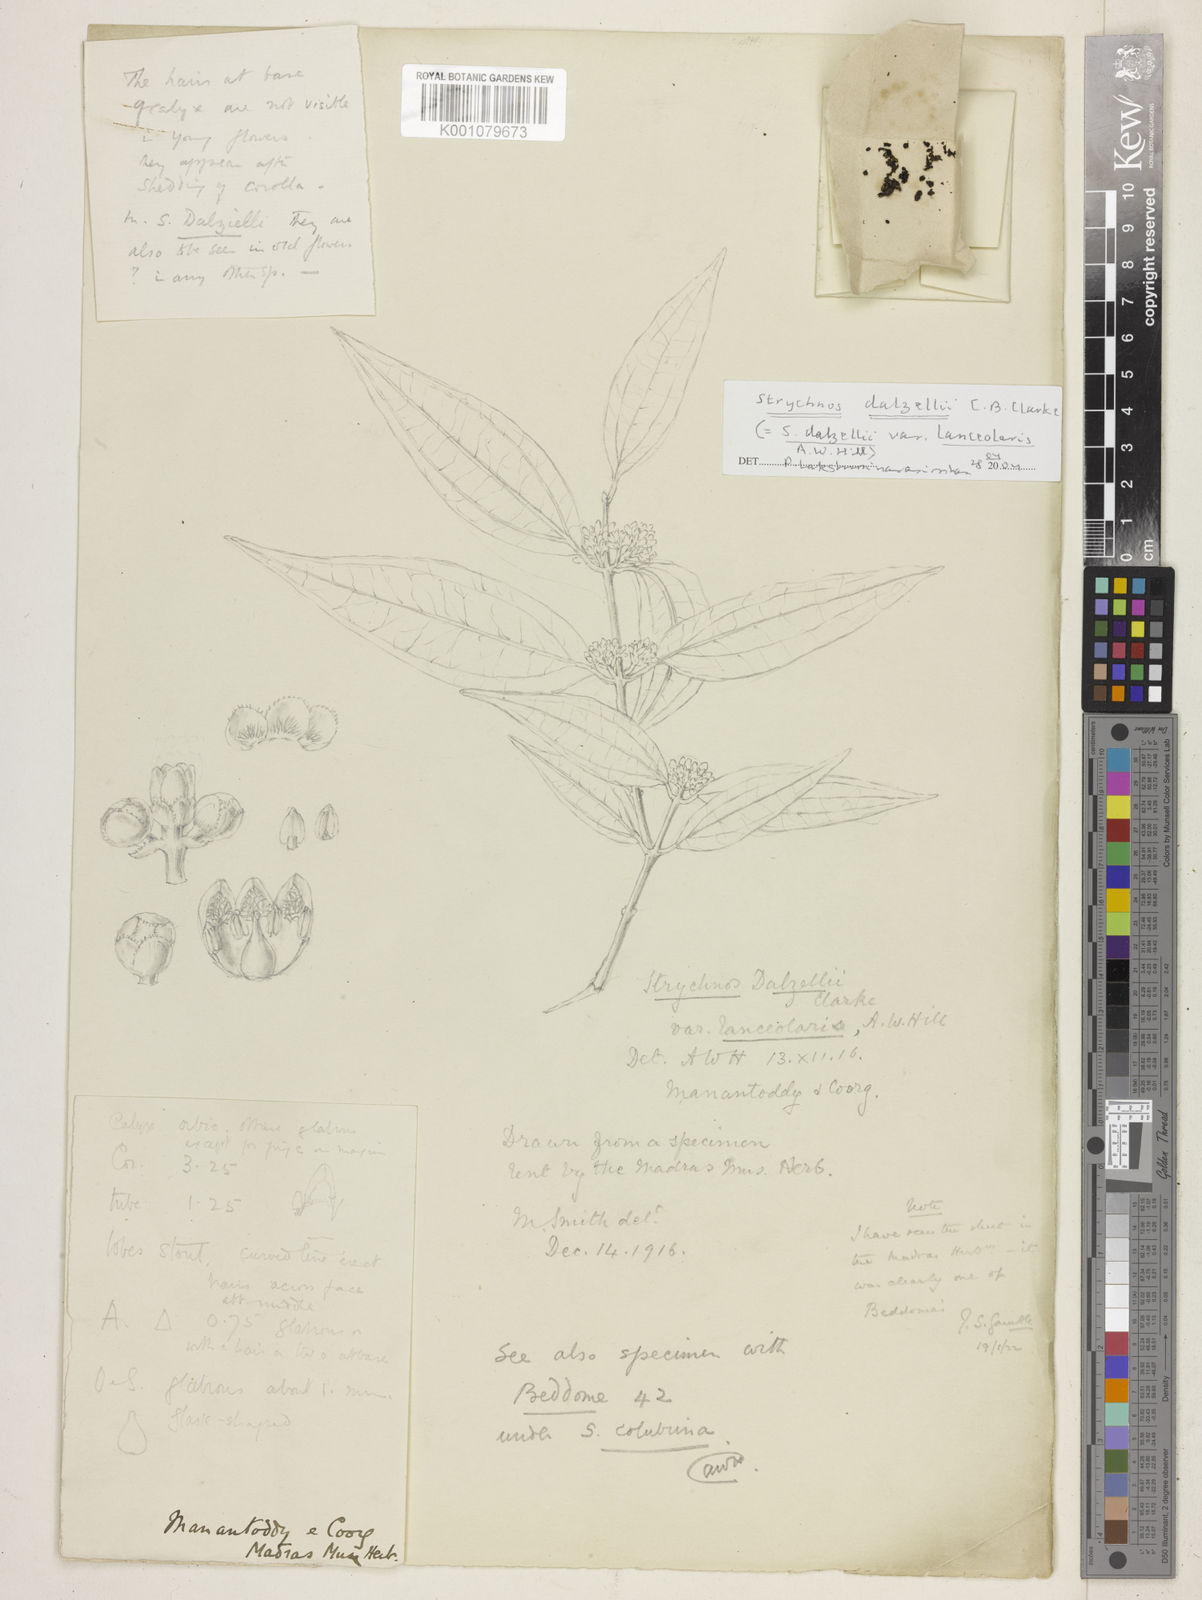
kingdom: Plantae
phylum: Tracheophyta
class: Magnoliopsida
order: Gentianales
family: Loganiaceae
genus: Strychnos
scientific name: Strychnos
